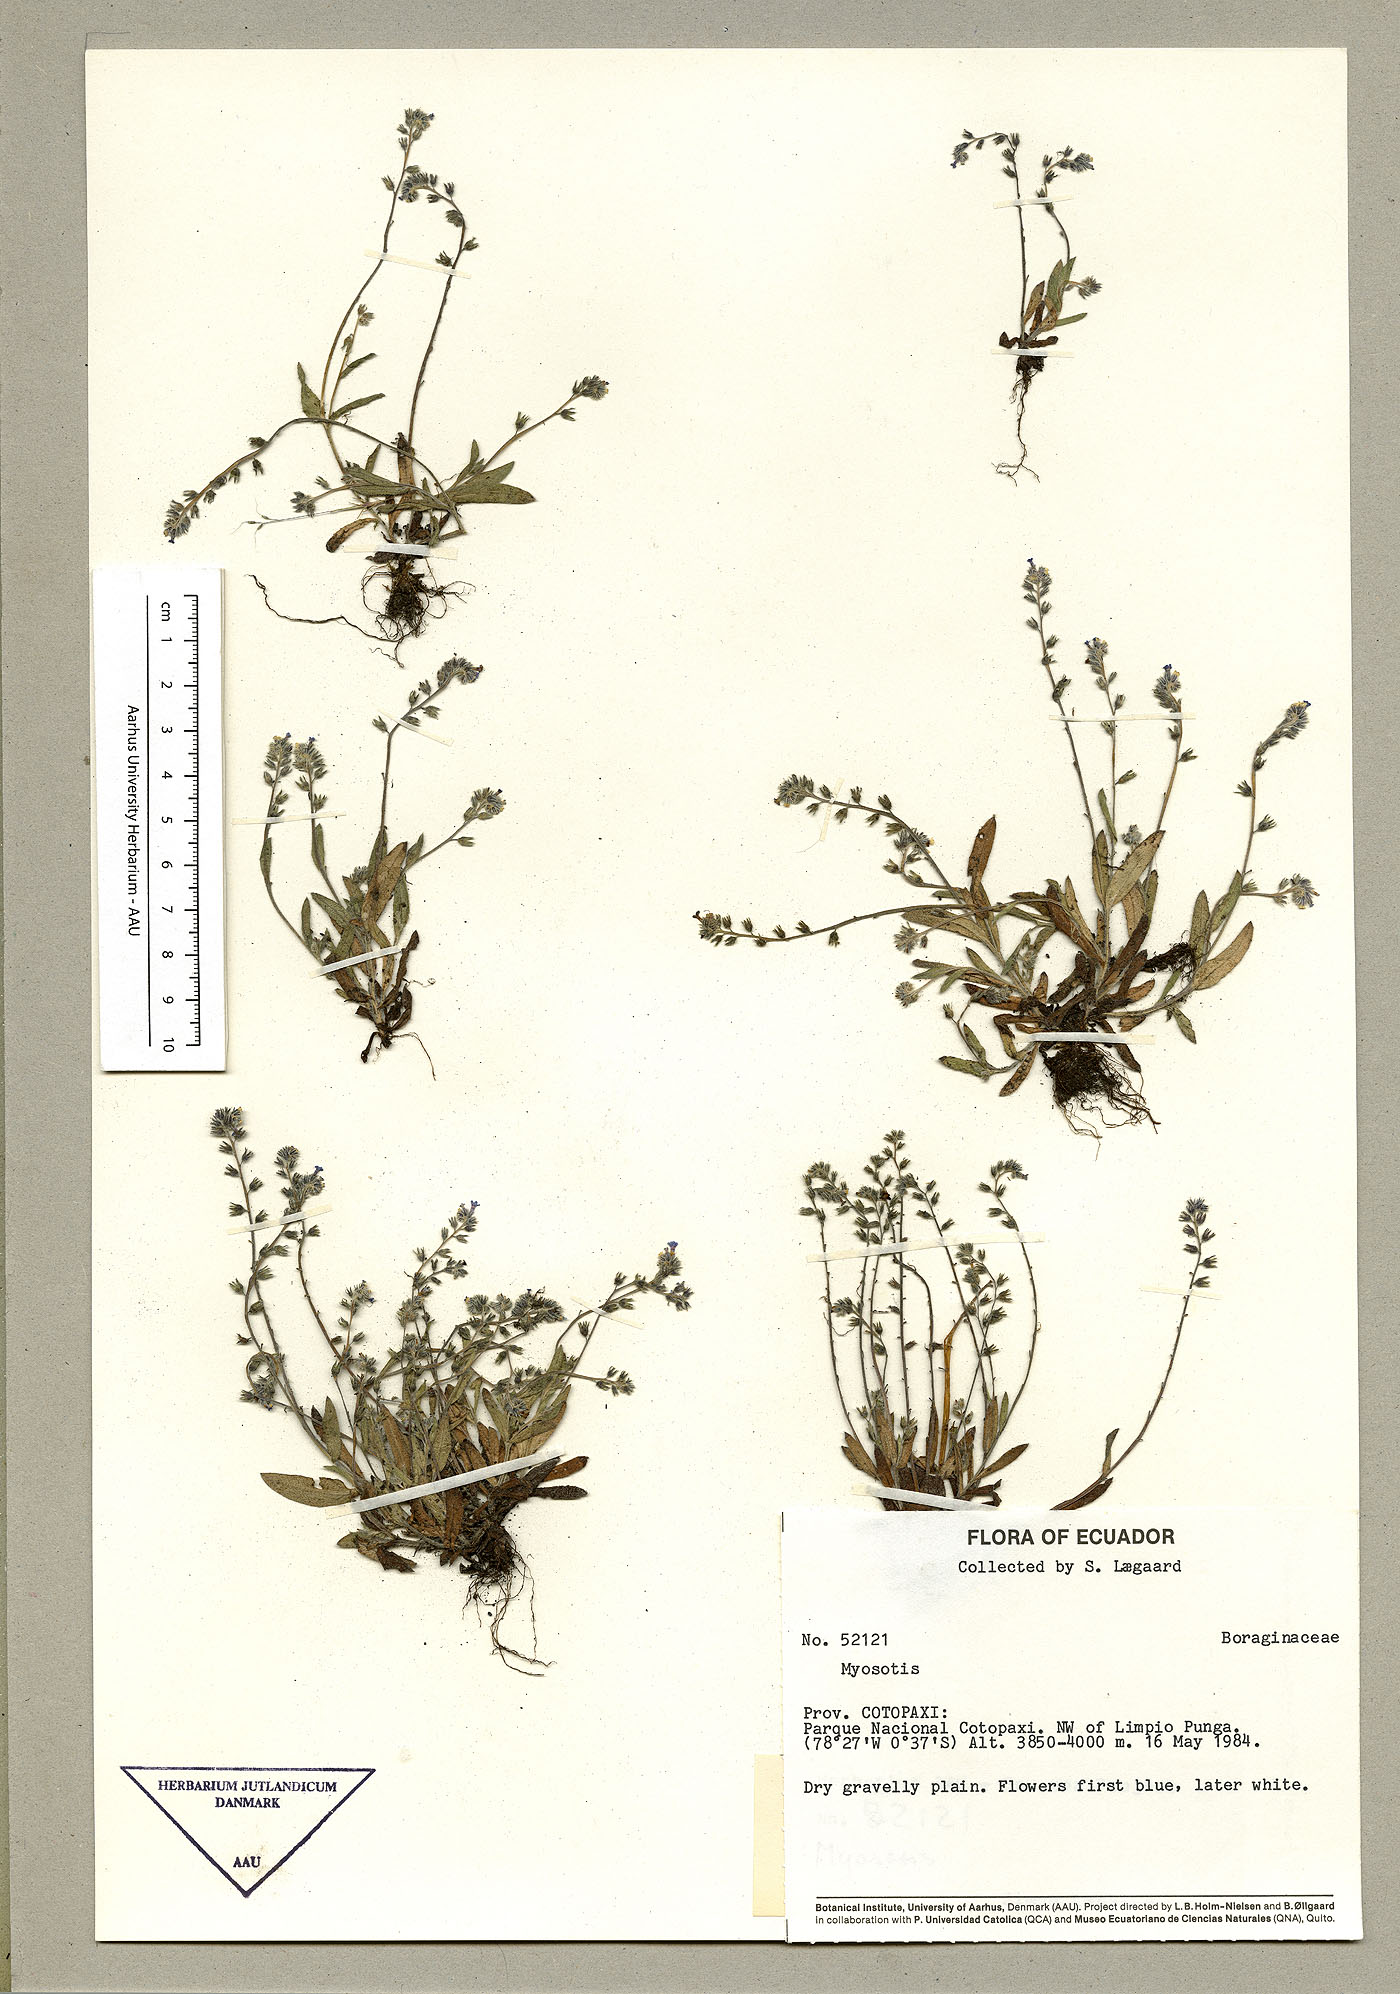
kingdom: Plantae
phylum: Tracheophyta
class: Magnoliopsida
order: Boraginales
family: Boraginaceae
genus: Myosotis
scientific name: Myosotis discolor
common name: Changing forget-me-not
